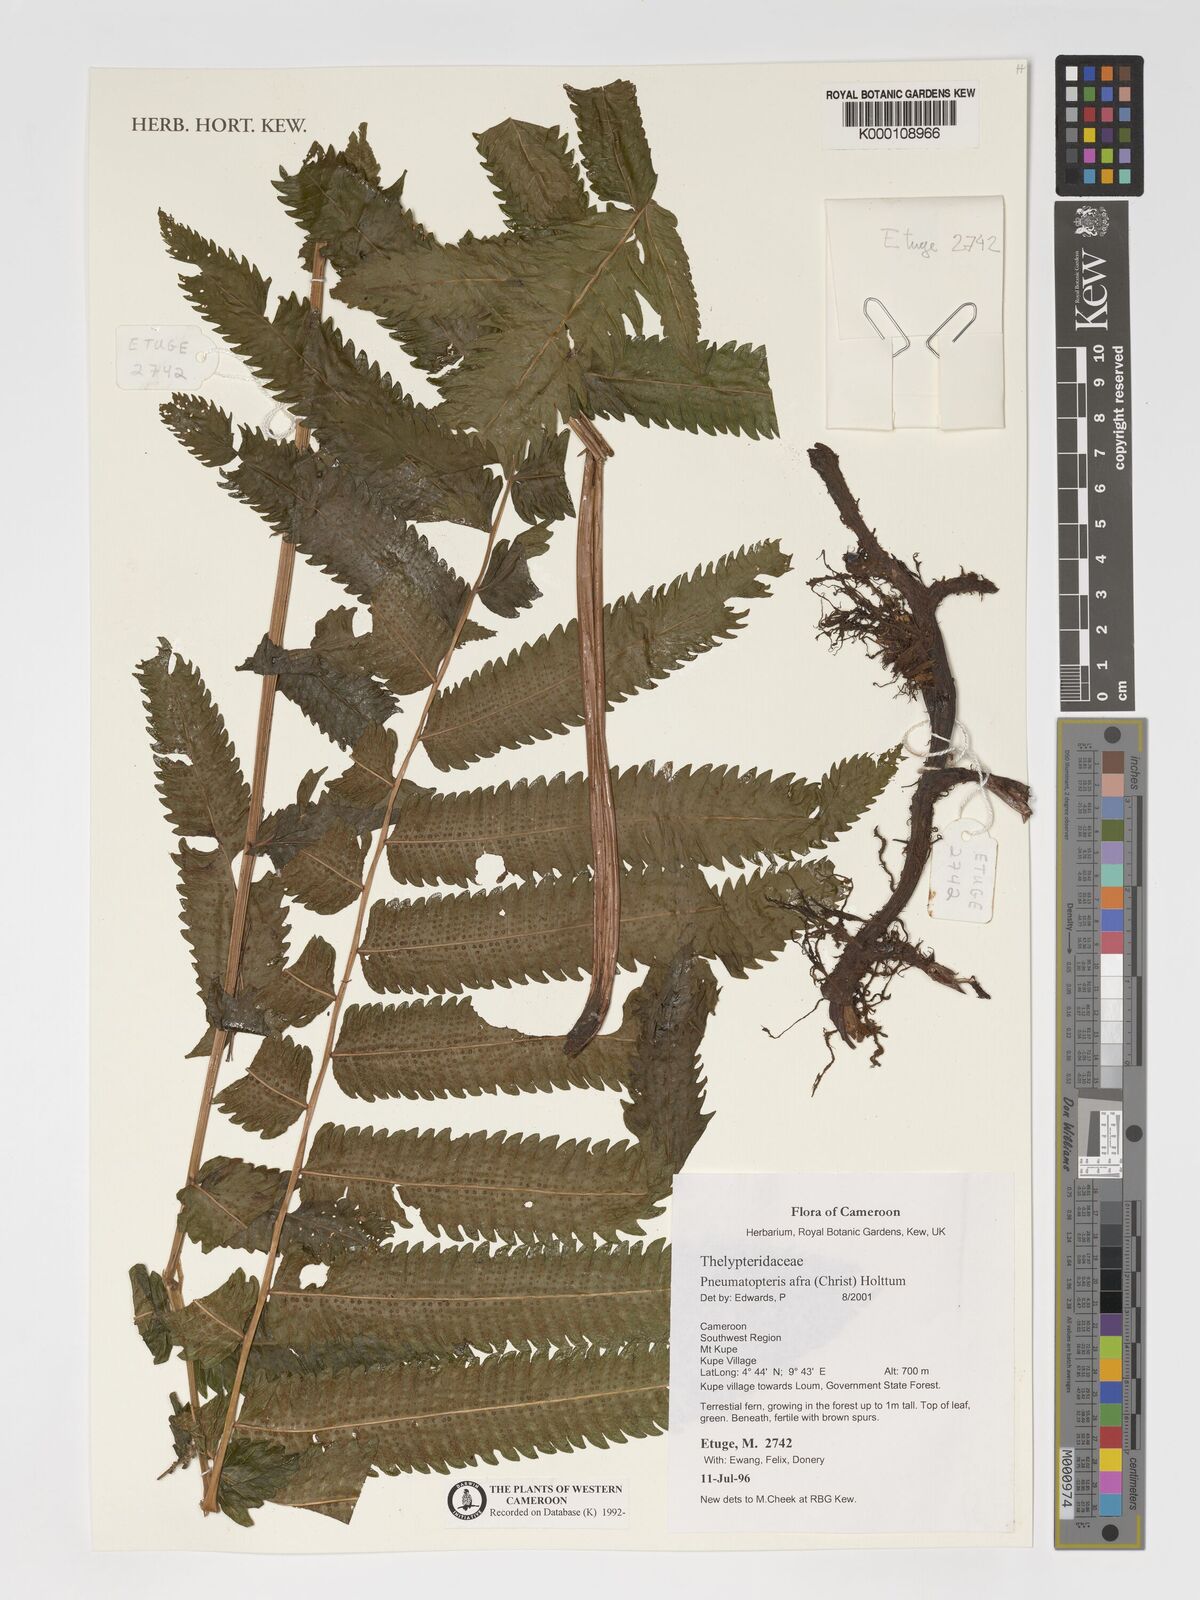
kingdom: Plantae
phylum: Tracheophyta
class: Polypodiopsida
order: Polypodiales
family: Thelypteridaceae
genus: Abacopteris
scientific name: Abacopteris afra
